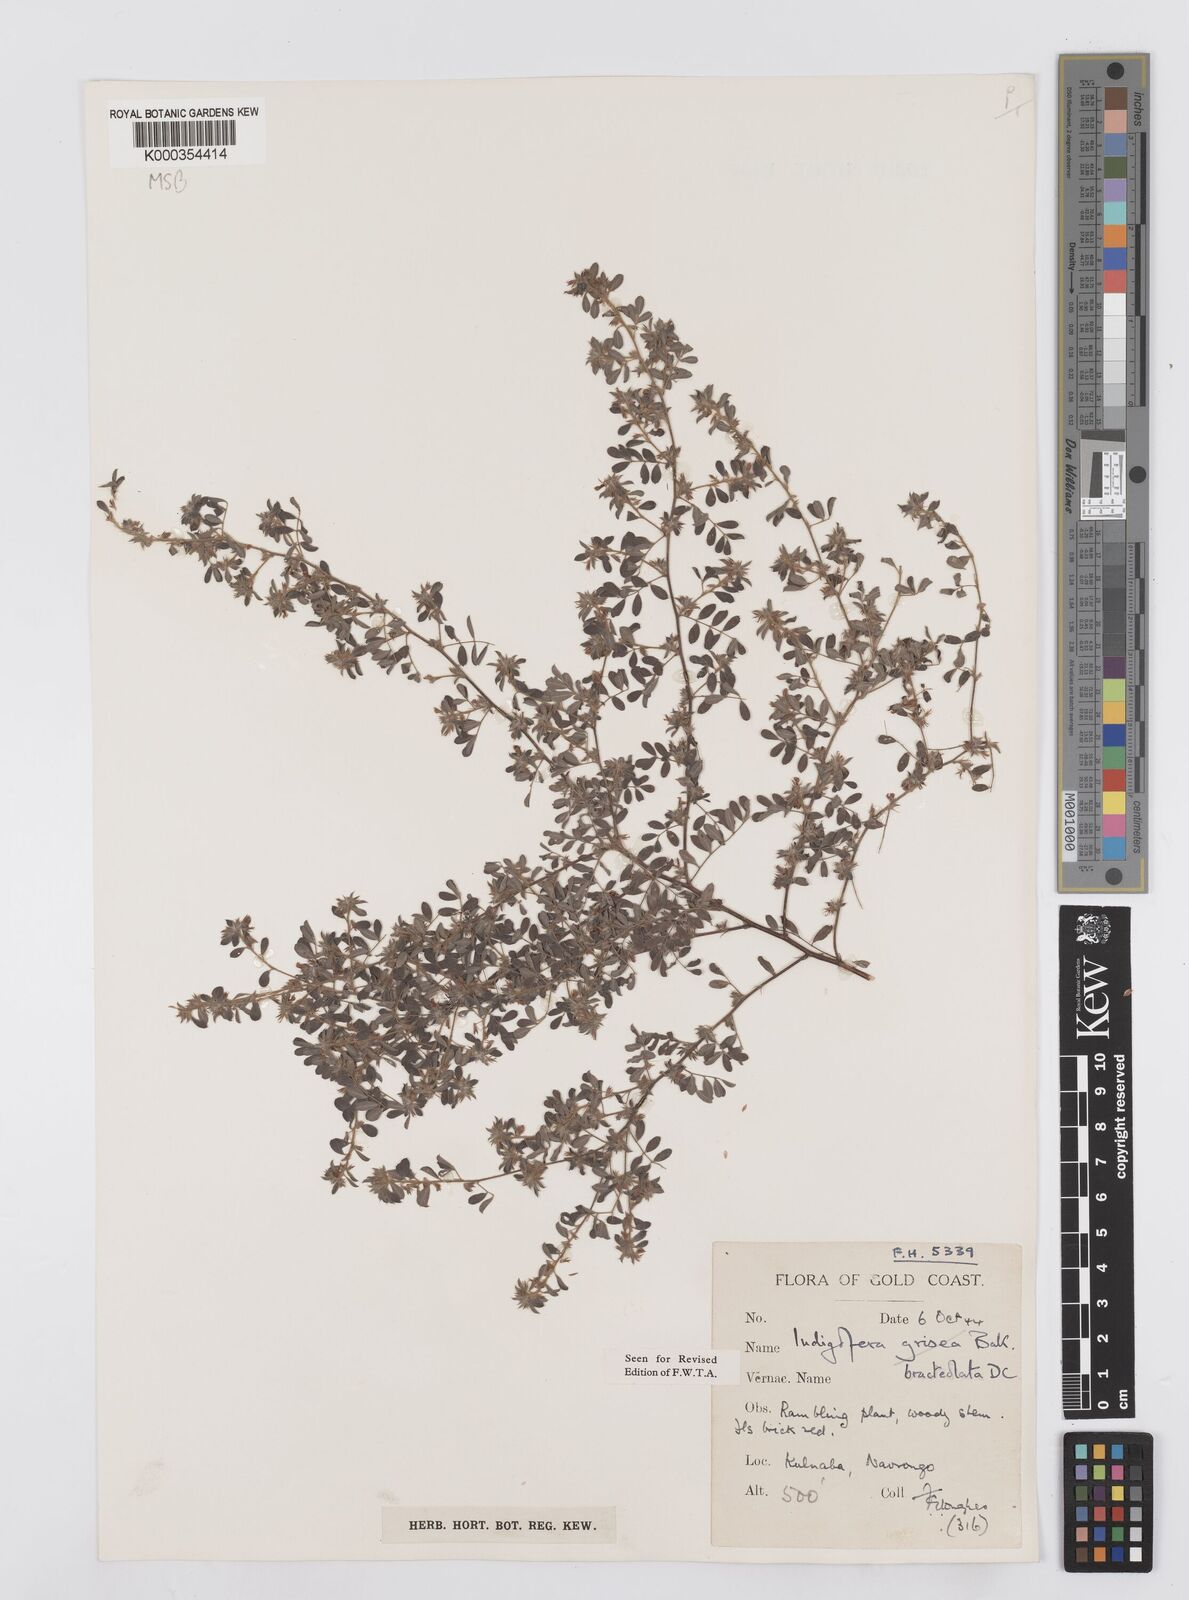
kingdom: Plantae
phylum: Tracheophyta
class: Magnoliopsida
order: Fabales
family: Fabaceae
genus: Indigofera
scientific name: Indigofera bracteolata
